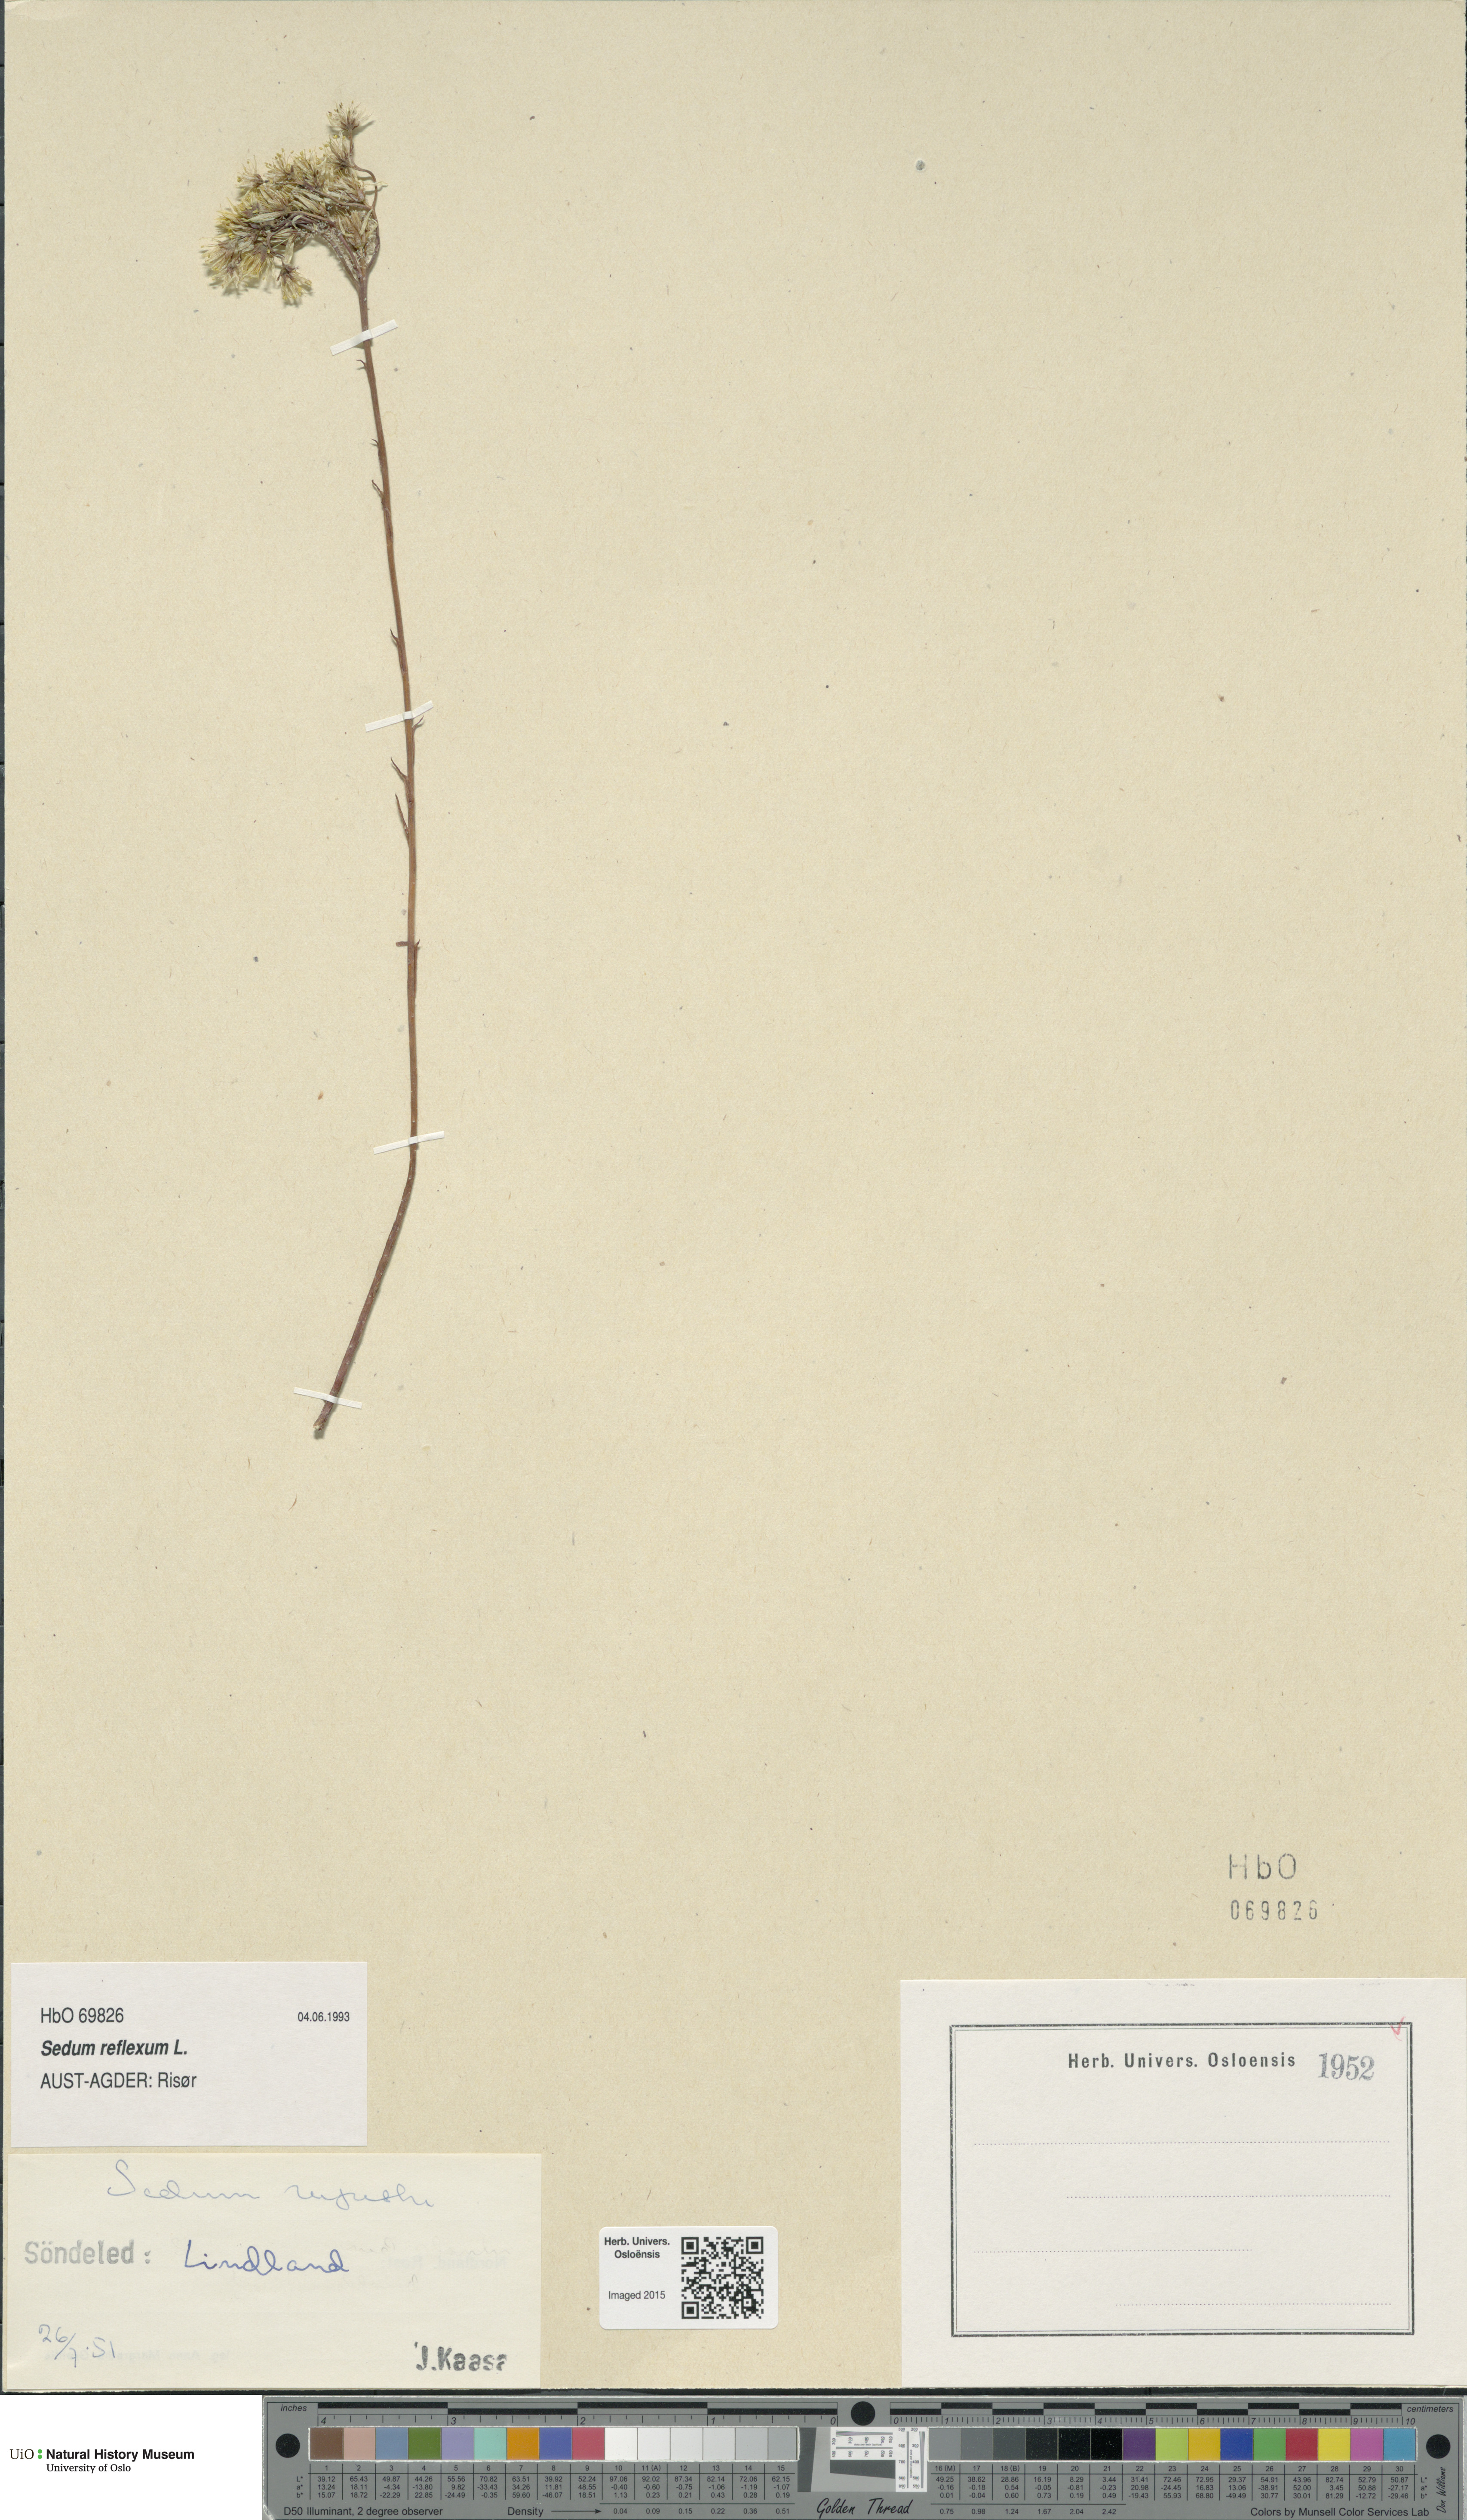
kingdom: Plantae
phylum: Tracheophyta
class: Magnoliopsida
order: Saxifragales
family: Crassulaceae
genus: Petrosedum
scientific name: Petrosedum rupestre
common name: Jenny's stonecrop
